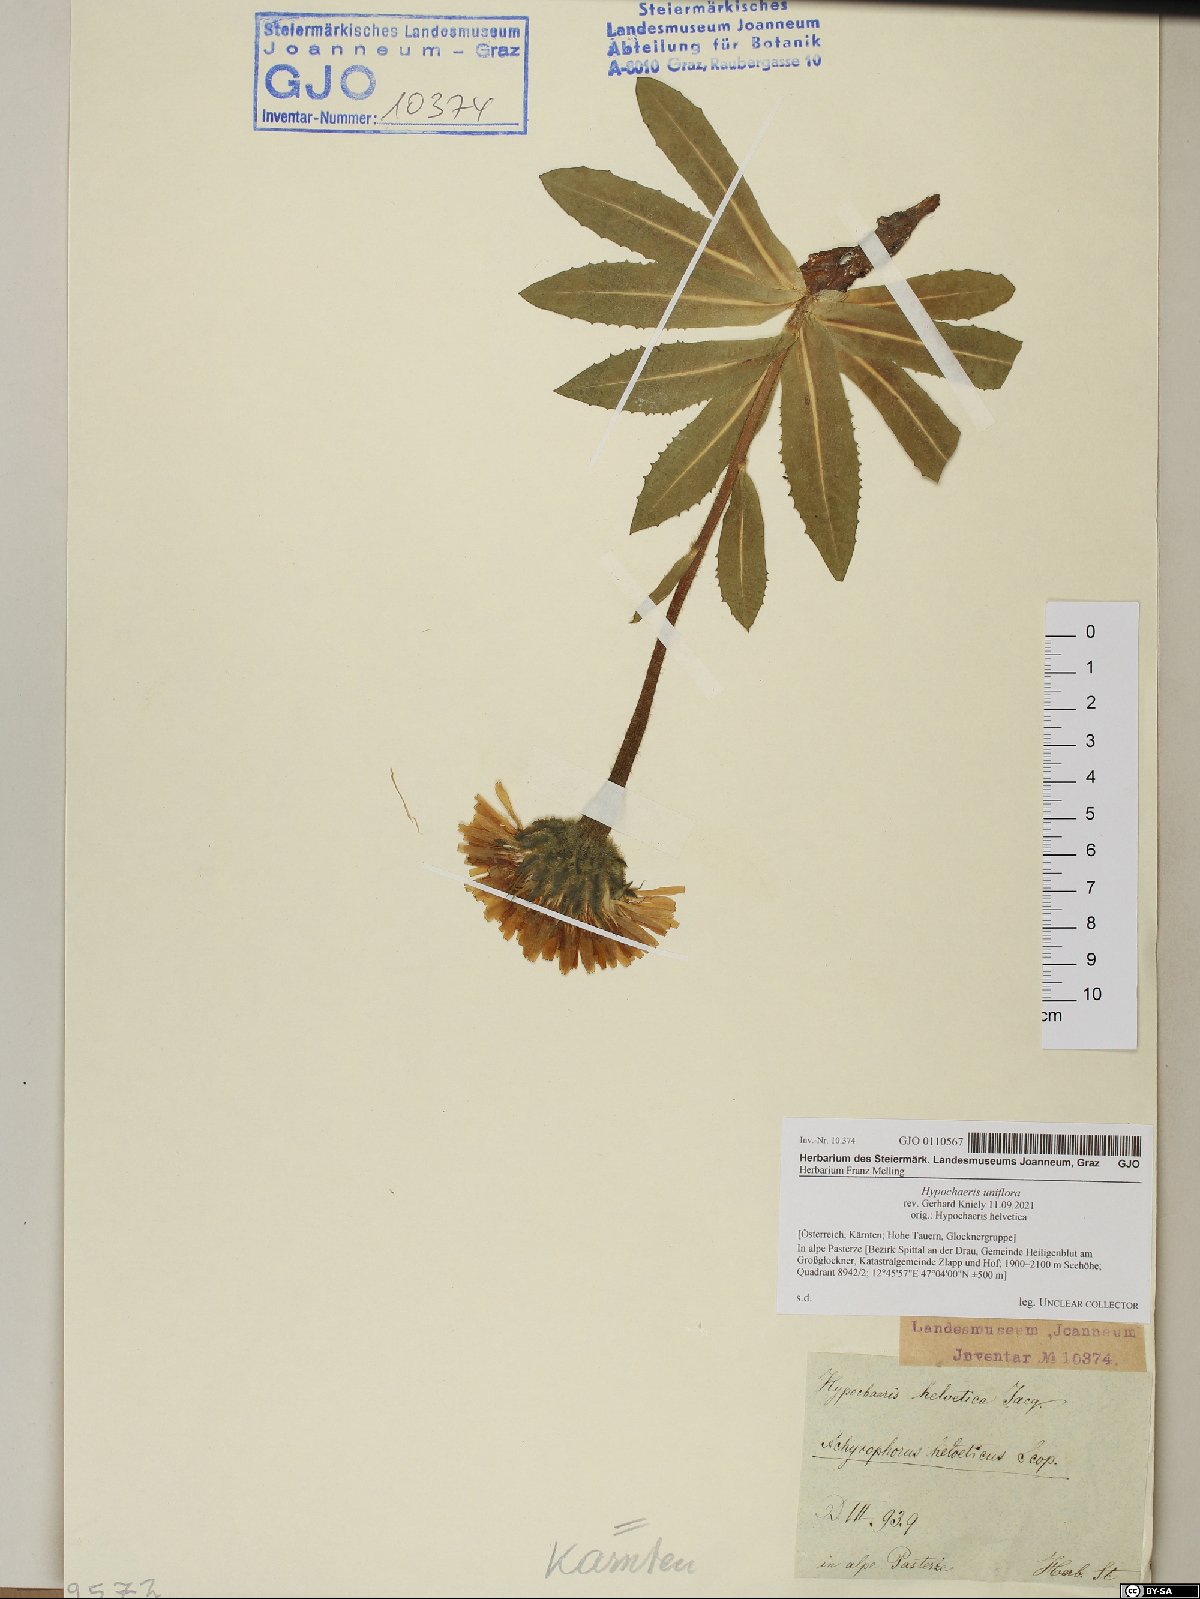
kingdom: Plantae
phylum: Tracheophyta
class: Magnoliopsida
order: Asterales
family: Asteraceae
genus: Trommsdorffia
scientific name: Trommsdorffia uniflora
